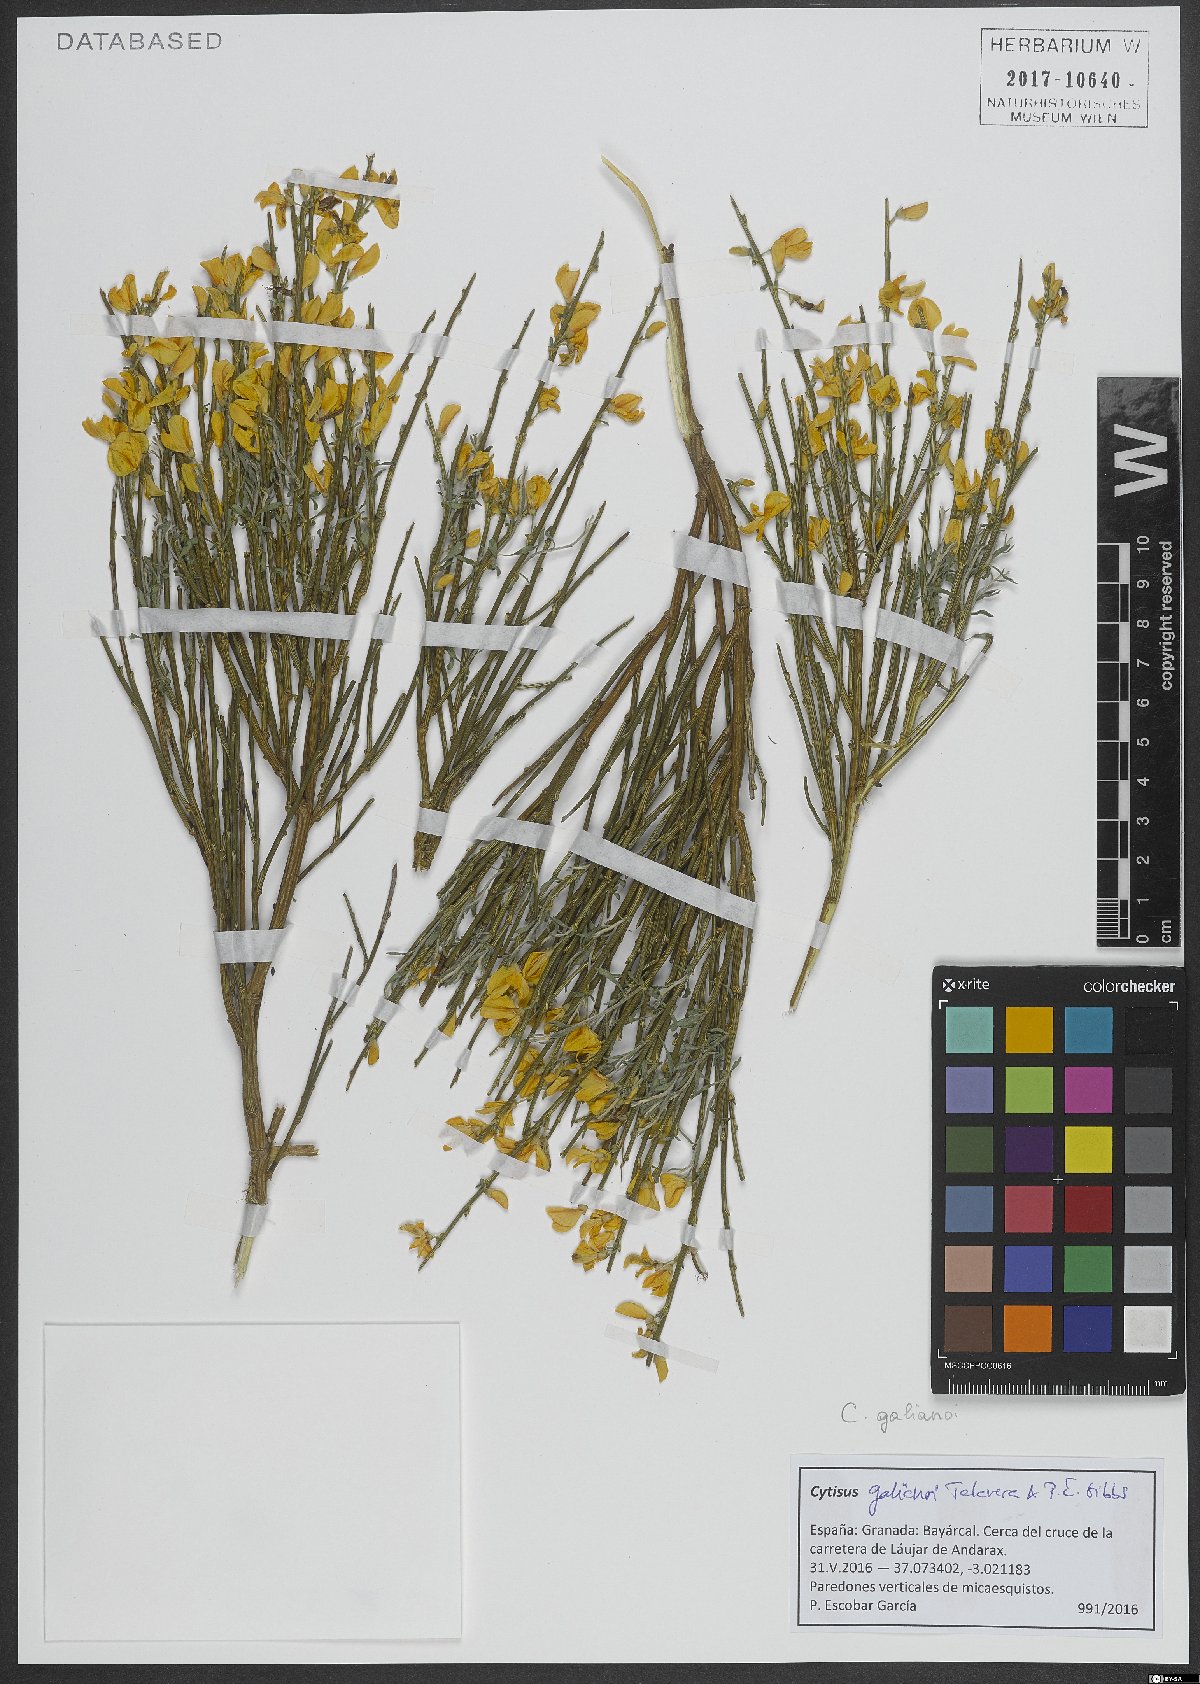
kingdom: Plantae
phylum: Tracheophyta
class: Magnoliopsida
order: Fabales
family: Fabaceae
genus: Cytisus
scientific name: Cytisus balansae
